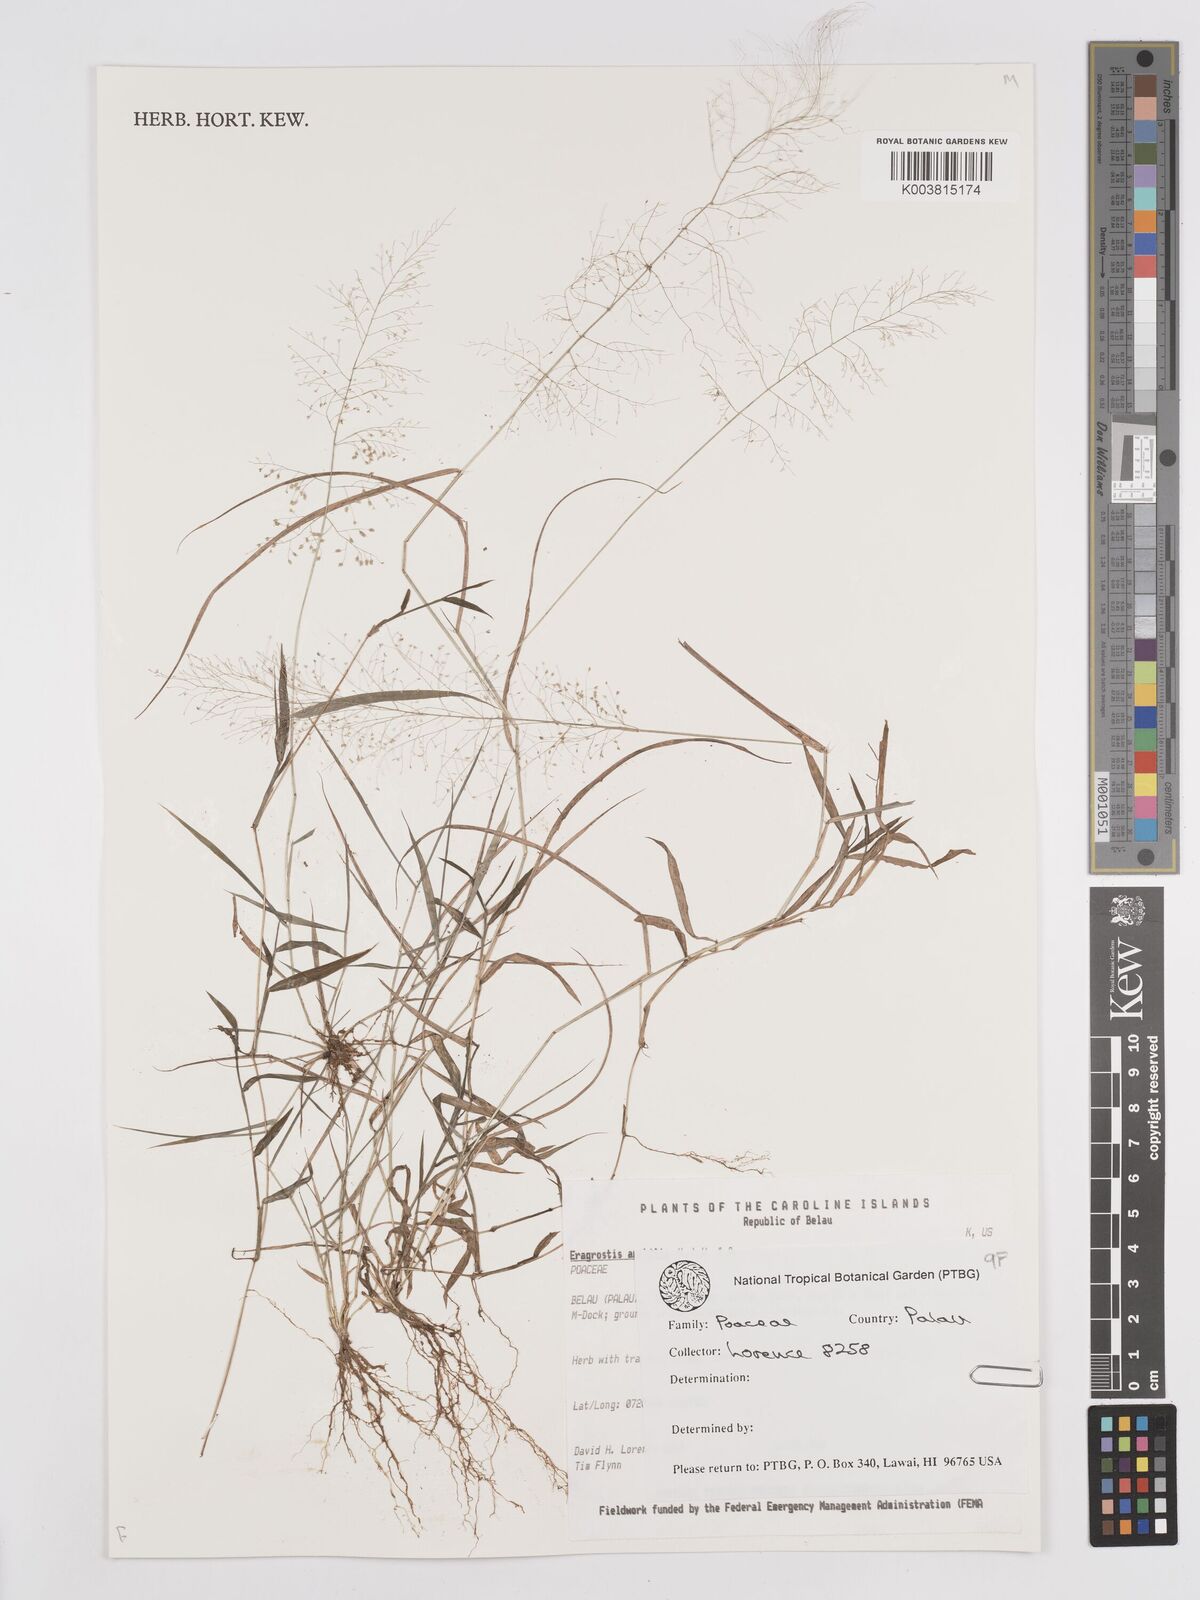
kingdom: Plantae
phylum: Tracheophyta
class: Liliopsida
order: Poales
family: Poaceae
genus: Eragrostis
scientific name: Eragrostis tenella
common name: Japanese lovegrass
